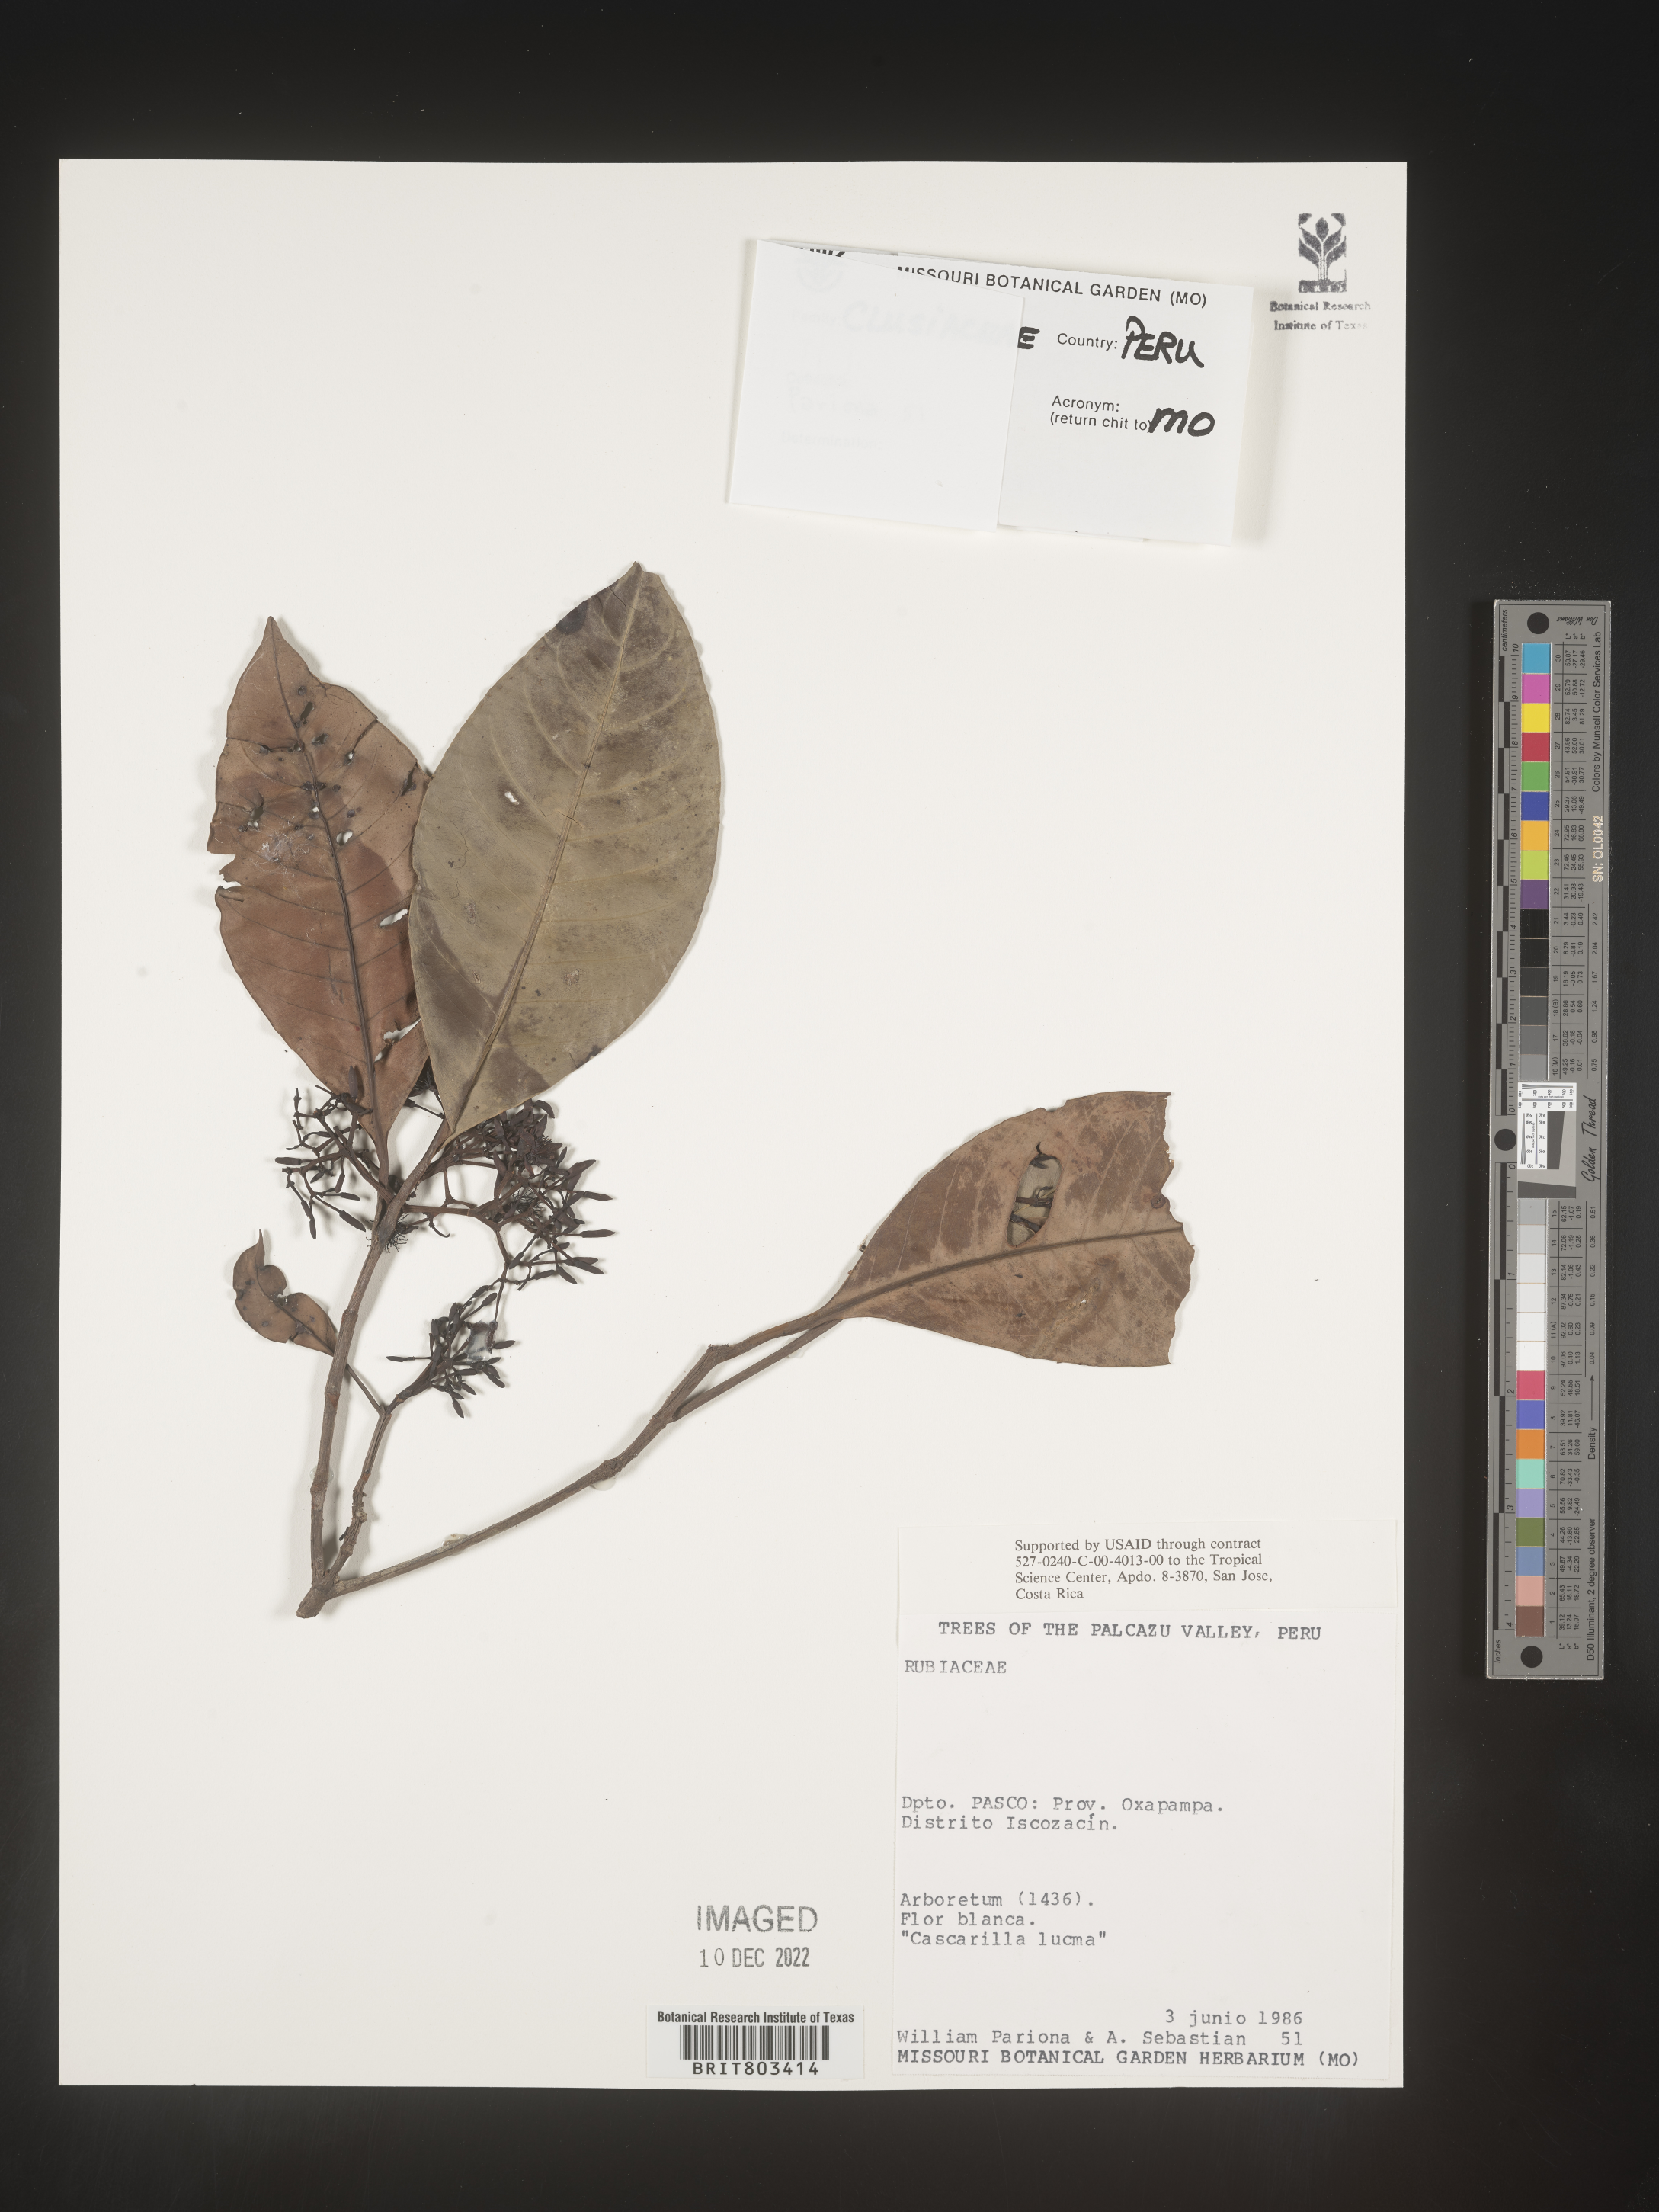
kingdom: Plantae
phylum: Tracheophyta
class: Magnoliopsida
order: Malpighiales
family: Clusiaceae
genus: Tovomita
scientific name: Tovomita
